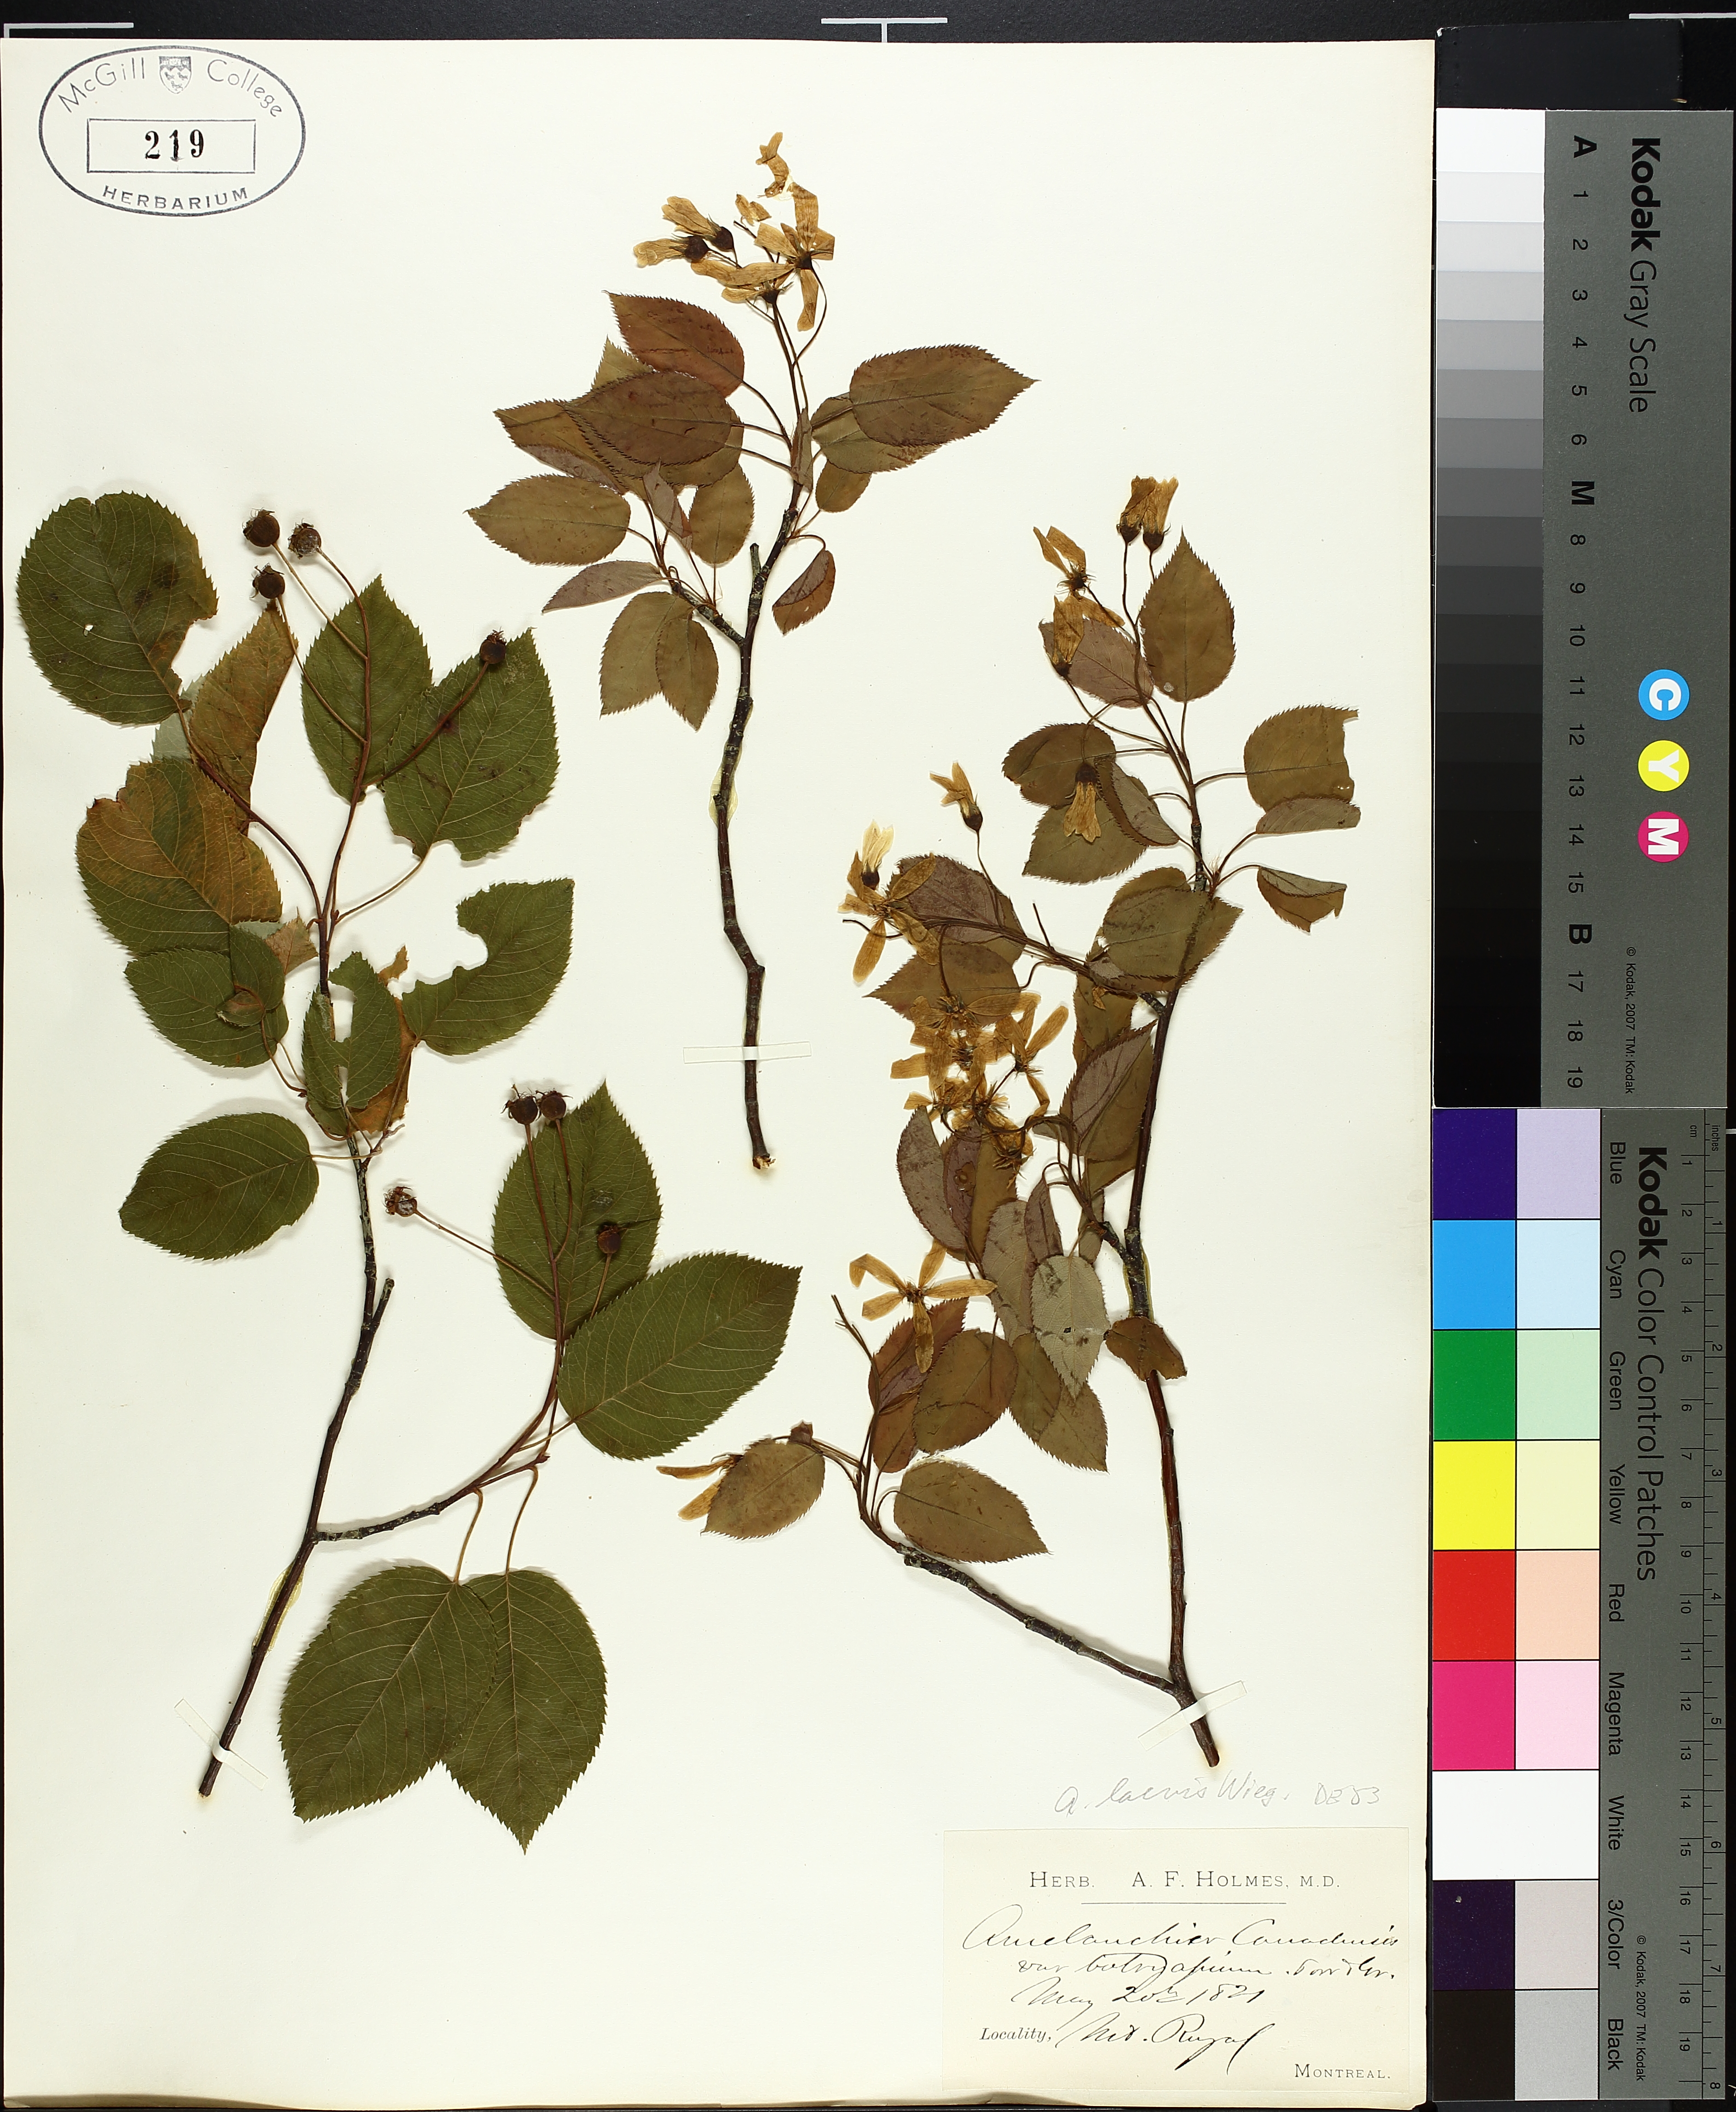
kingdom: Plantae
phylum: Tracheophyta
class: Magnoliopsida
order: Rosales
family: Rosaceae
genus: Amelanchier
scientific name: Amelanchier laevis
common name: Allegheny serviceberry
